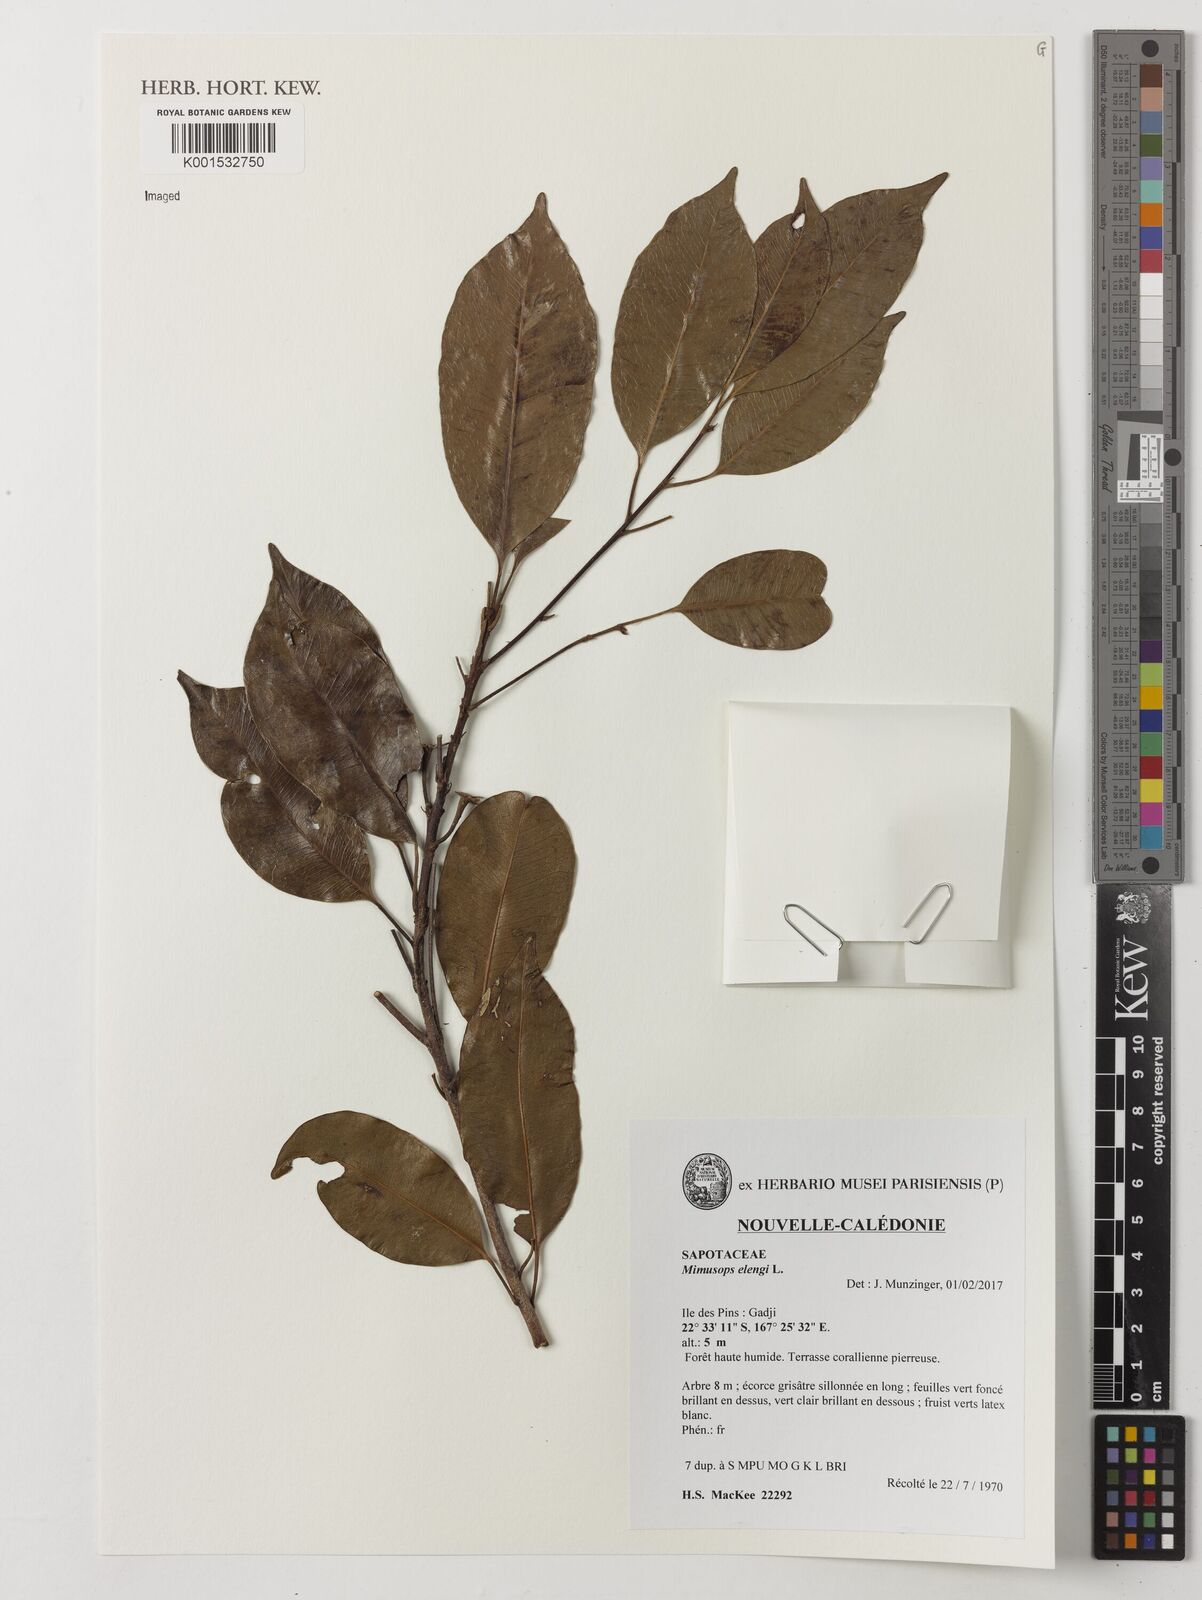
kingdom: Plantae
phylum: Tracheophyta
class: Magnoliopsida
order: Ericales
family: Sapotaceae
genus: Mimusops
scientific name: Mimusops elengi
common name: Spanish cherry
